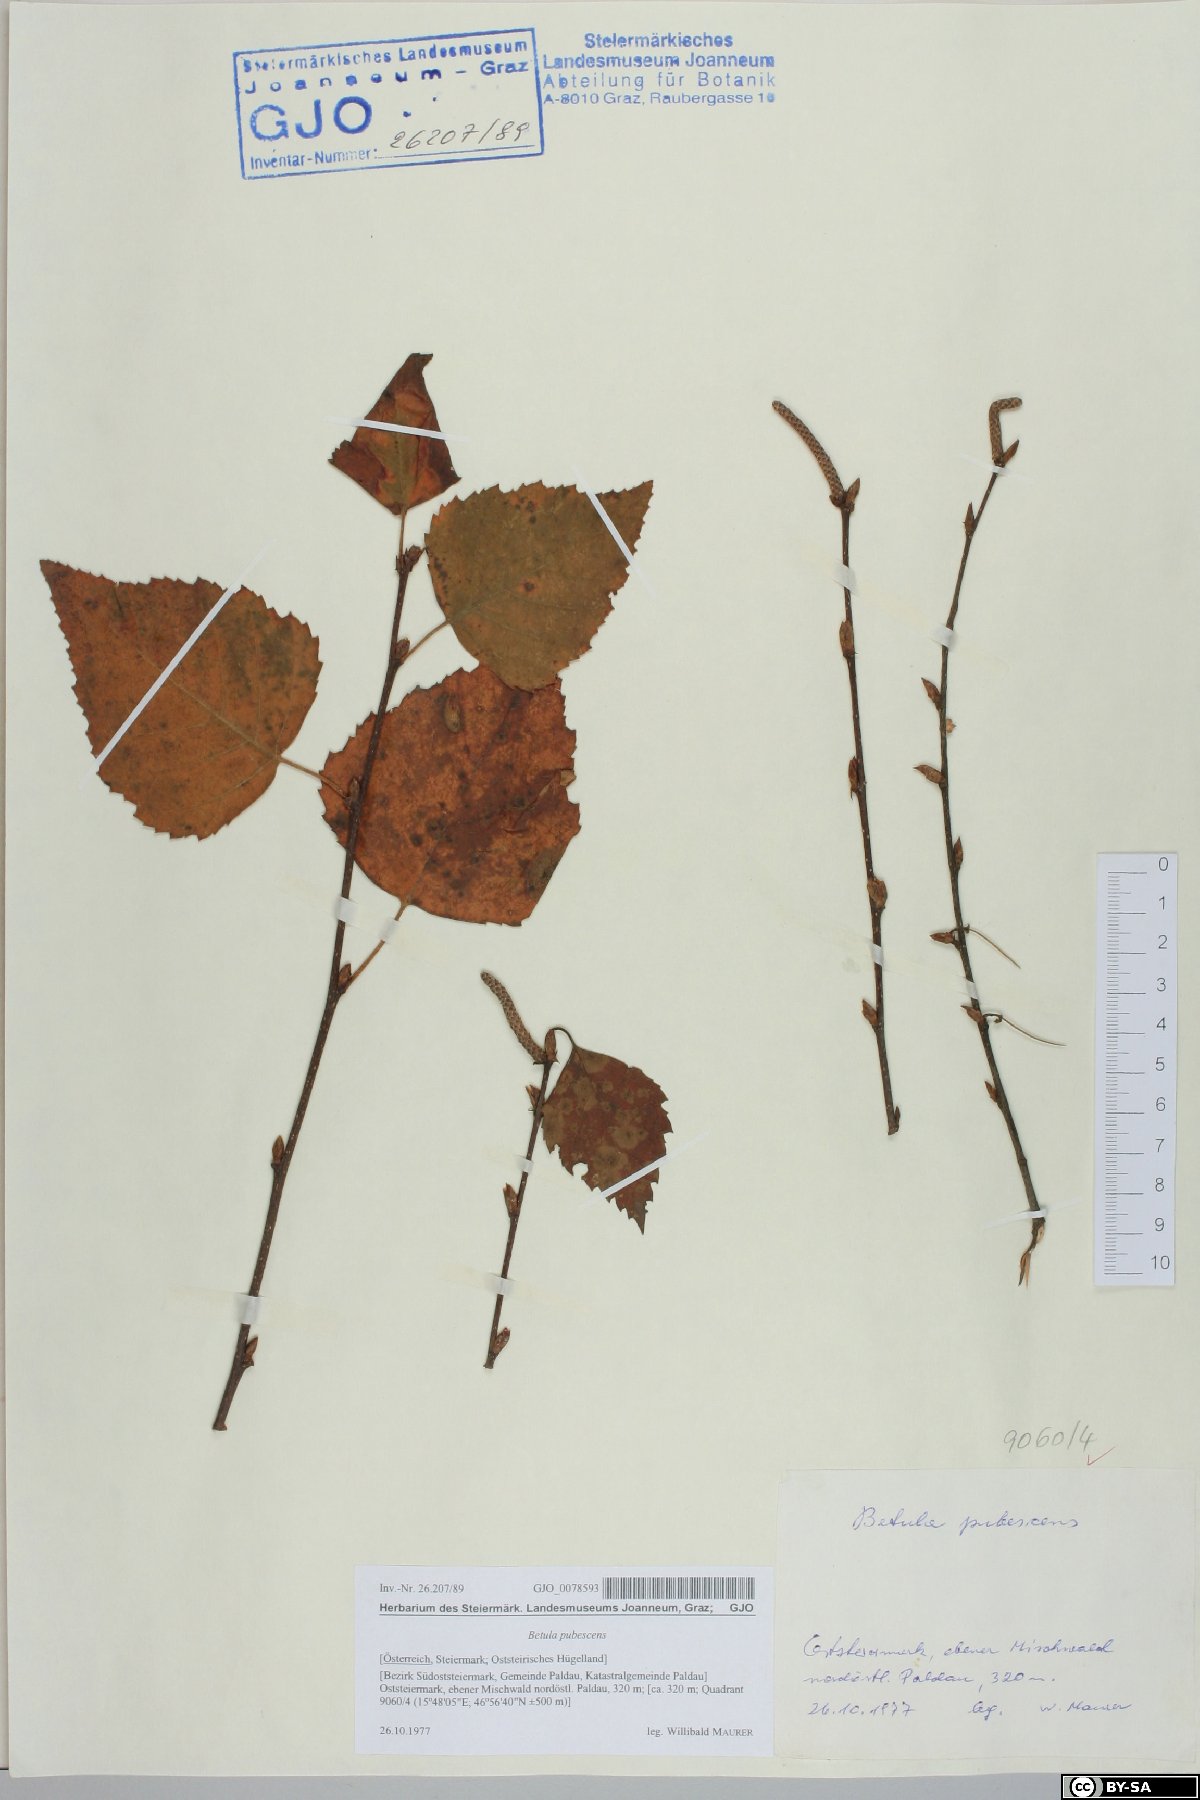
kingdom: Plantae
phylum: Tracheophyta
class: Magnoliopsida
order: Fagales
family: Betulaceae
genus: Betula
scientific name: Betula pubescens
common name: Downy birch
